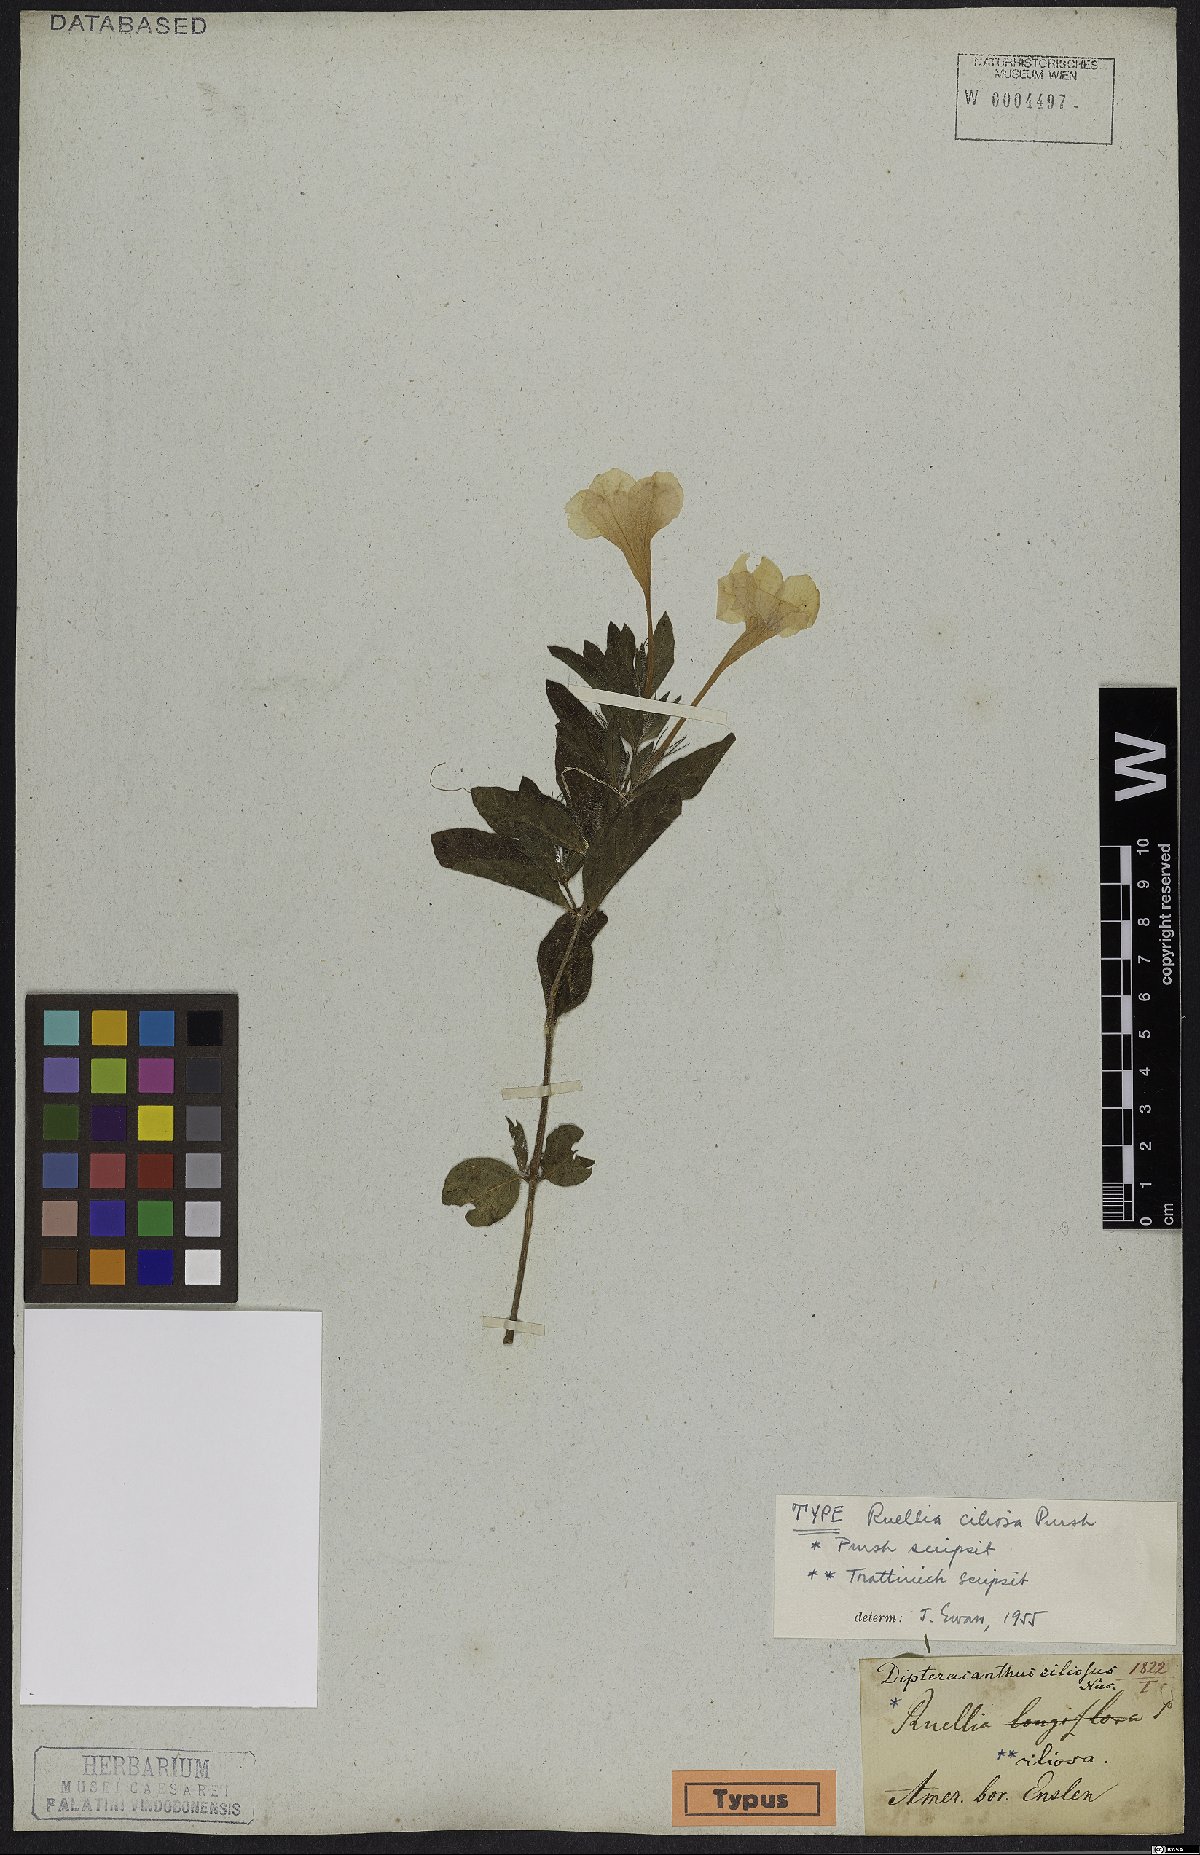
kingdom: Plantae
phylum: Tracheophyta
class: Magnoliopsida
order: Lamiales
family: Acanthaceae
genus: Ruellia
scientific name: Ruellia caroliniensis
